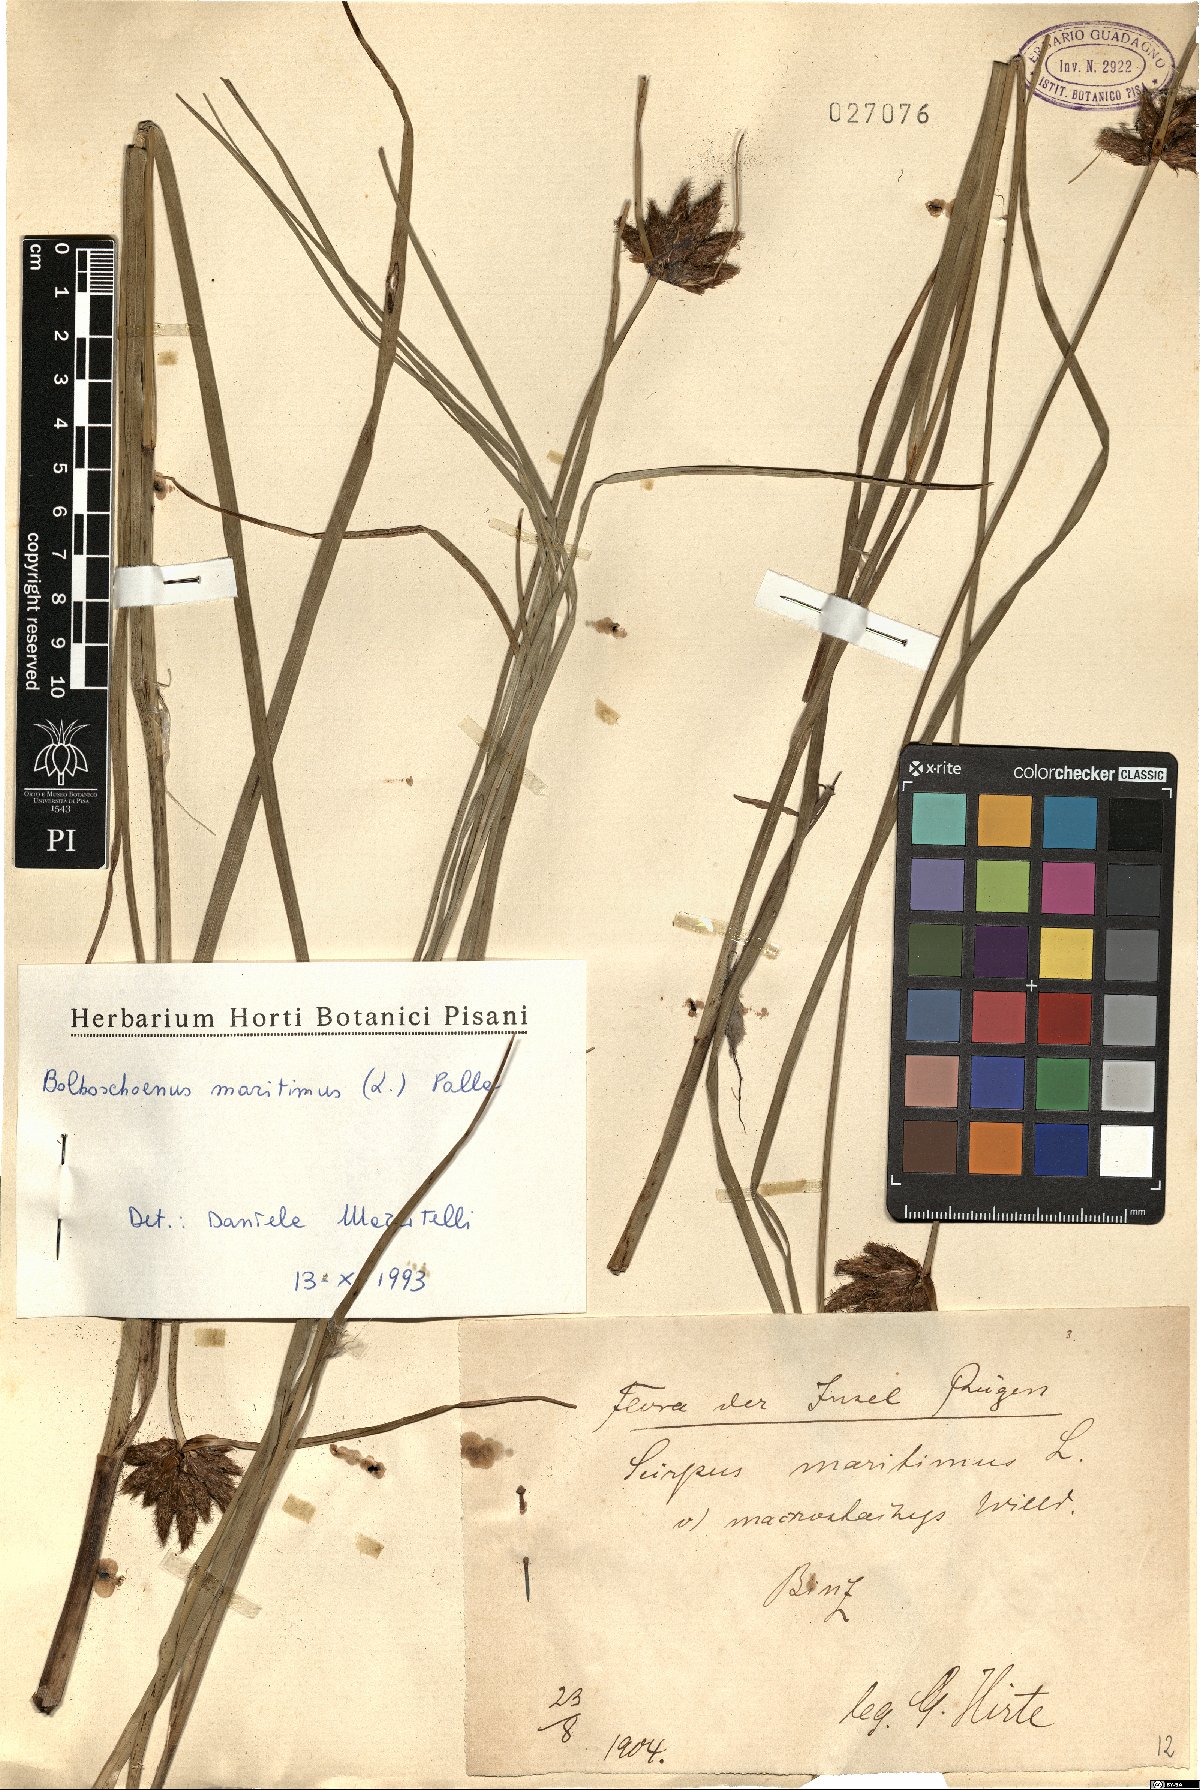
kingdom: Plantae
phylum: Tracheophyta
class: Liliopsida
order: Poales
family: Cyperaceae
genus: Bolboschoenus
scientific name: Bolboschoenus maritimus
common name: Sea club-rush
